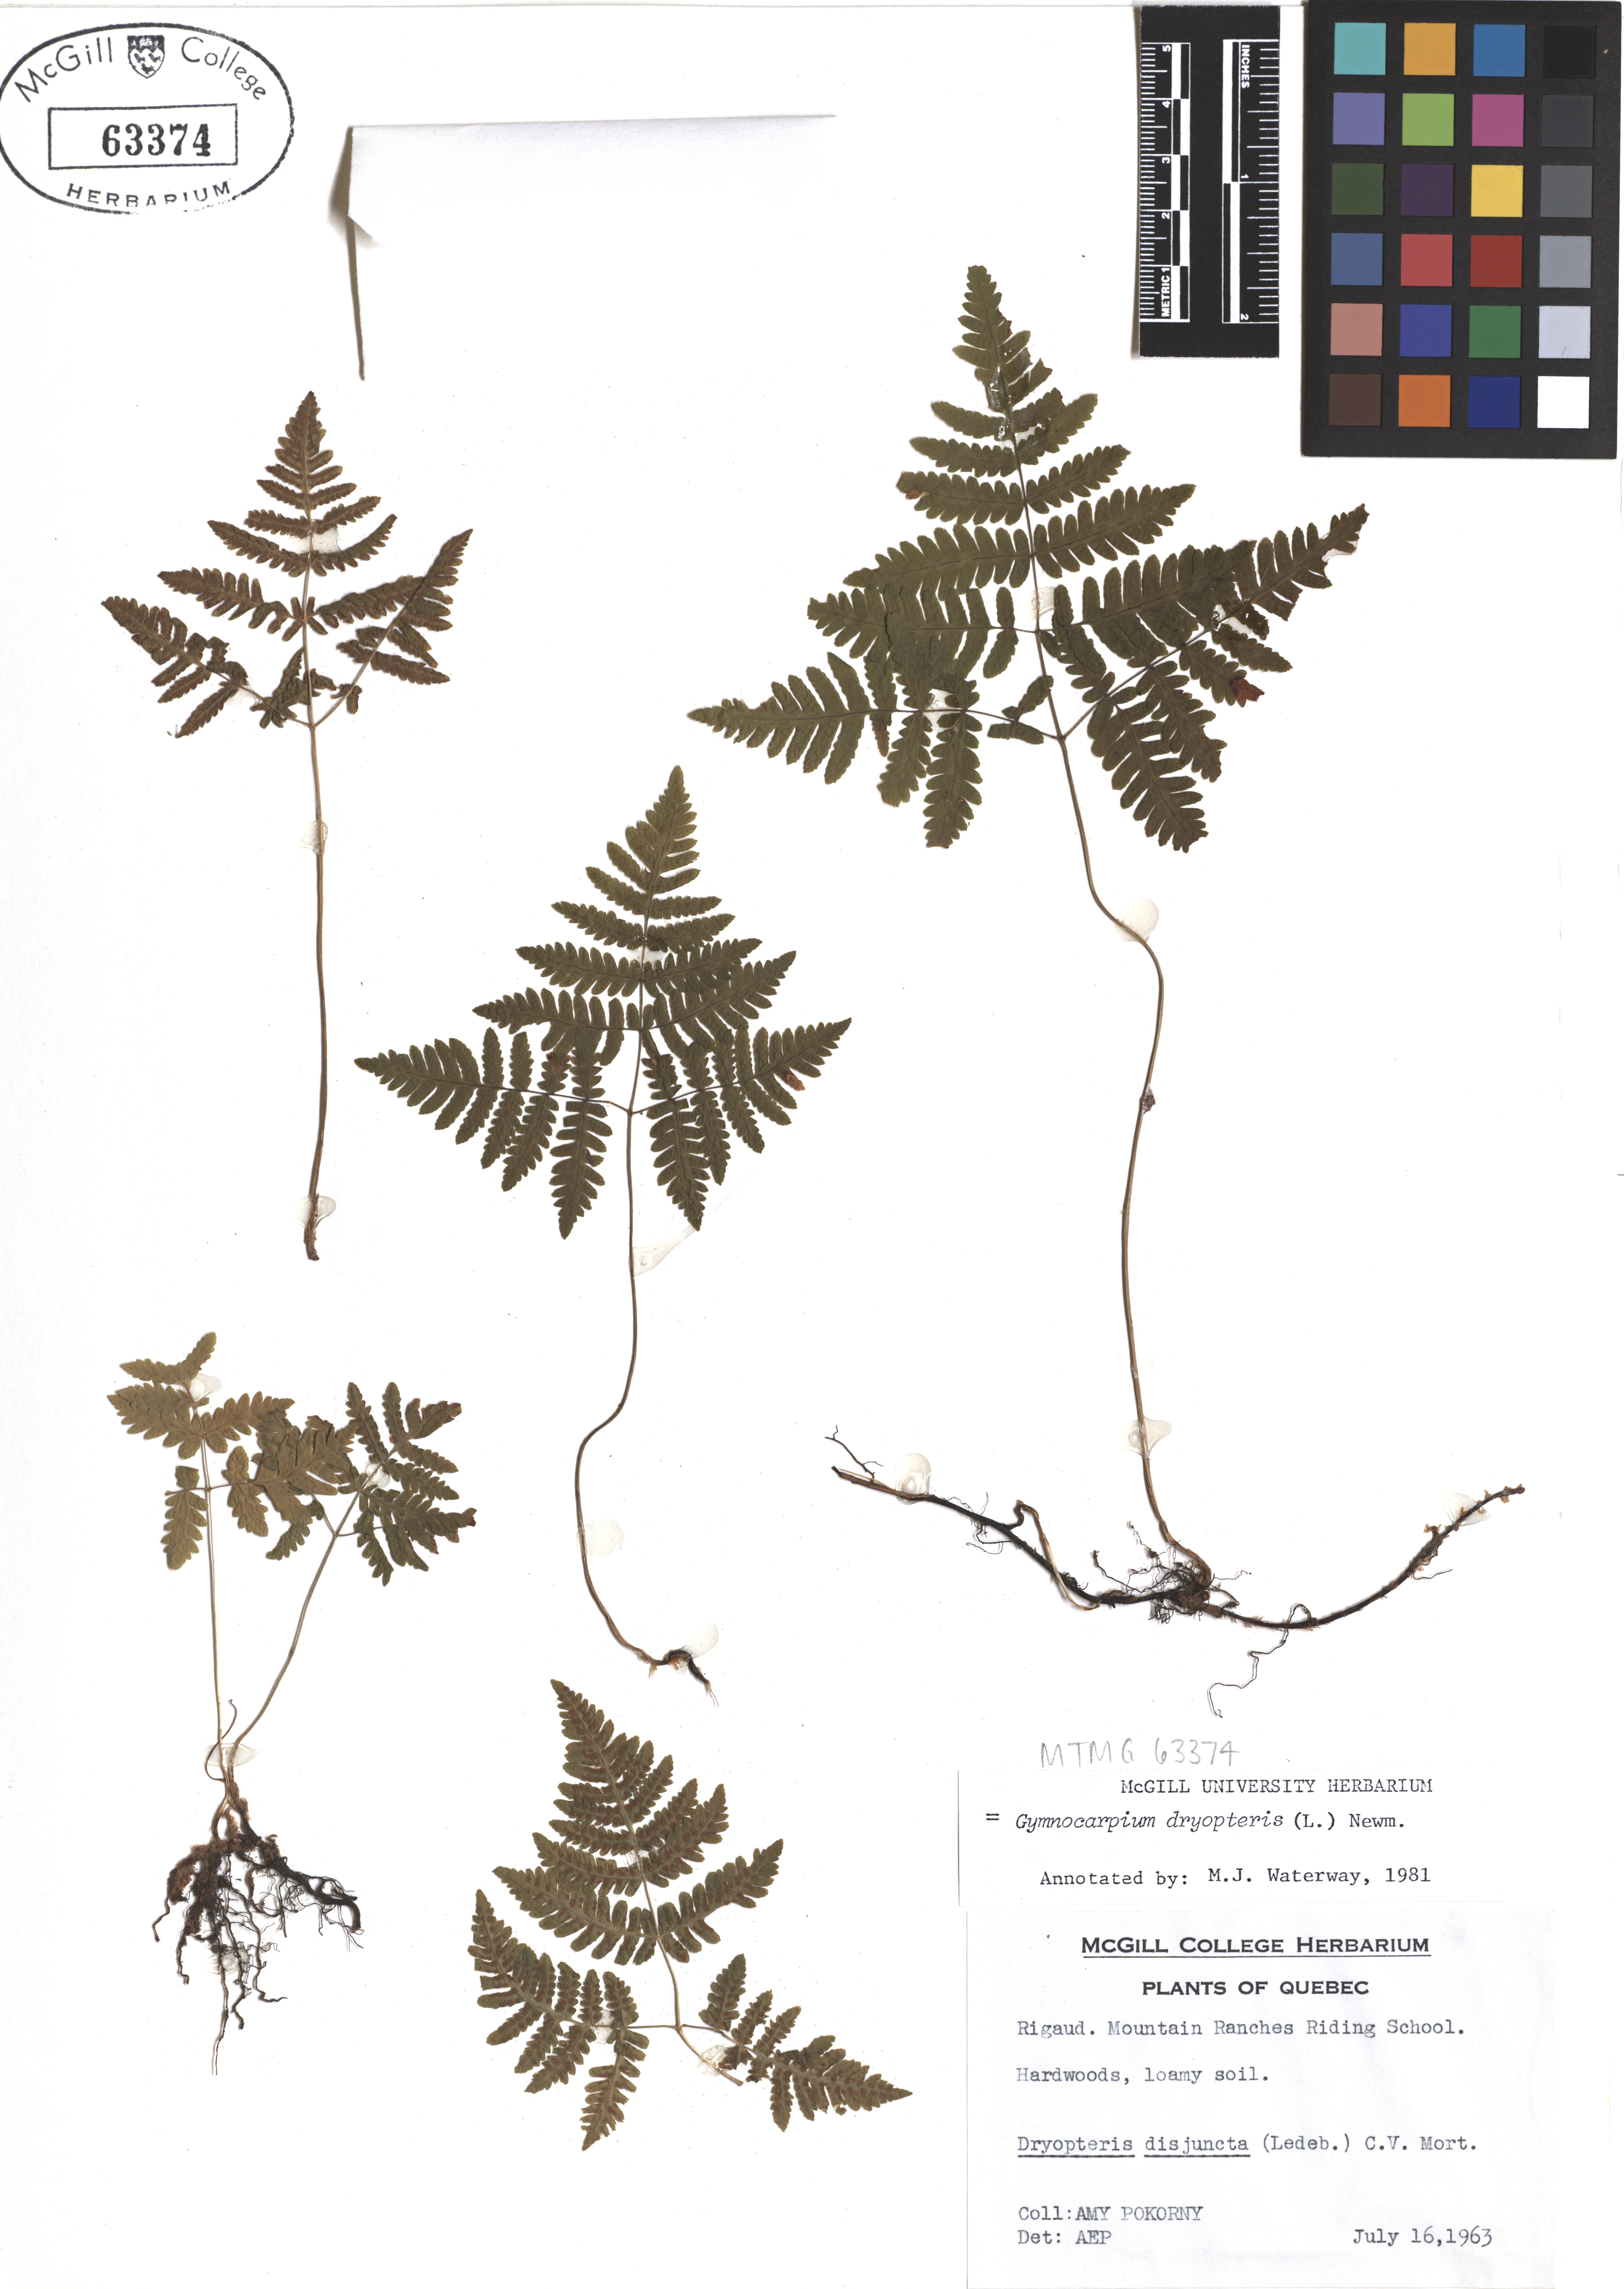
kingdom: Plantae
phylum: Tracheophyta
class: Polypodiopsida
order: Polypodiales
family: Cystopteridaceae
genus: Gymnocarpium
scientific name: Gymnocarpium dryopteris
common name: Oak fern
